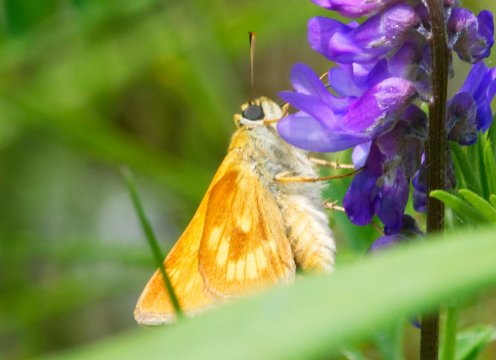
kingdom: Animalia
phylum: Arthropoda
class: Insecta
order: Lepidoptera
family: Hesperiidae
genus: Polites
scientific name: Polites
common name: Long Dash Skipper
